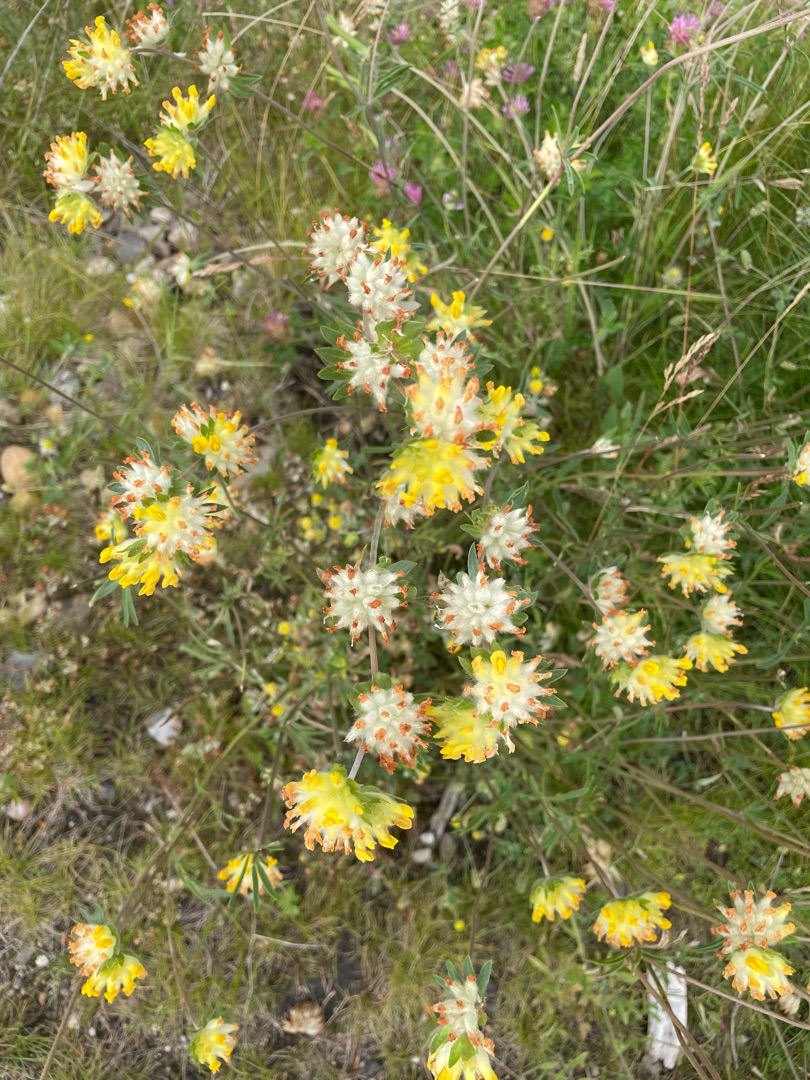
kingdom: Plantae
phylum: Tracheophyta
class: Magnoliopsida
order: Fabales
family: Fabaceae
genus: Anthyllis
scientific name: Anthyllis vulneraria
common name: Rundbælg
